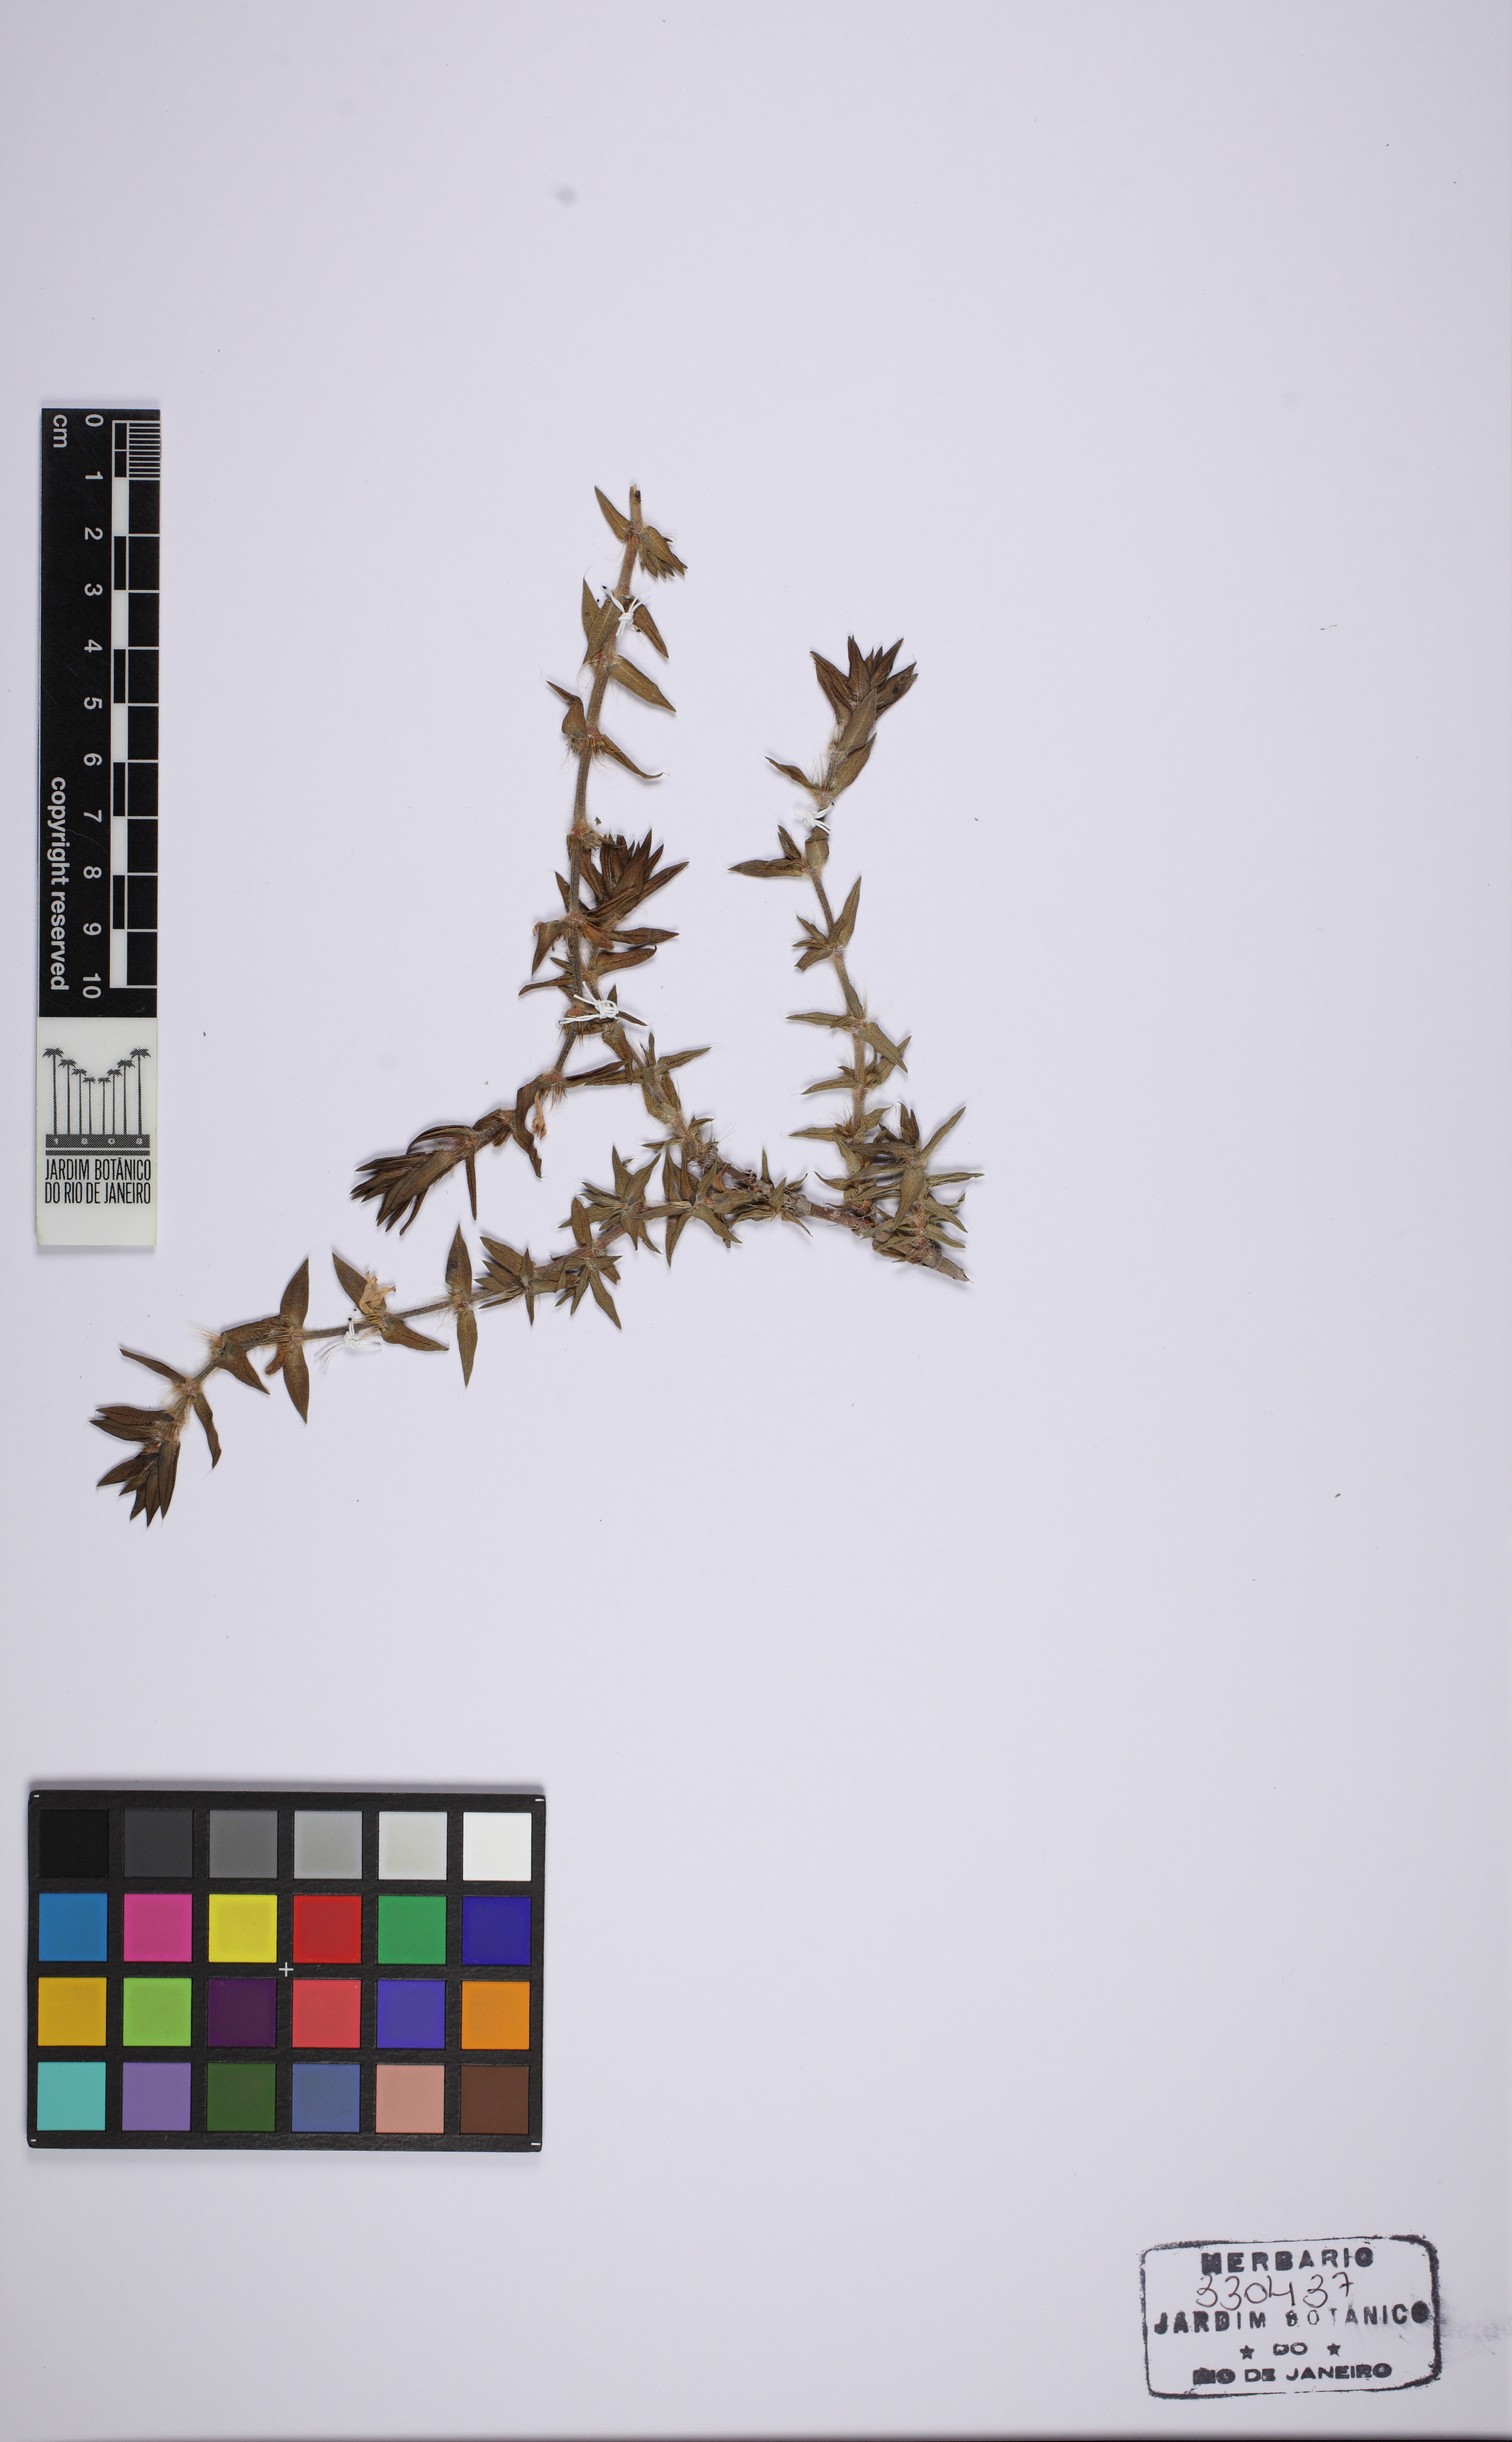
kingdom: Plantae
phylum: Tracheophyta
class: Magnoliopsida
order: Gentianales
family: Rubiaceae
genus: Hexasepalum
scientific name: Hexasepalum apiculatum
